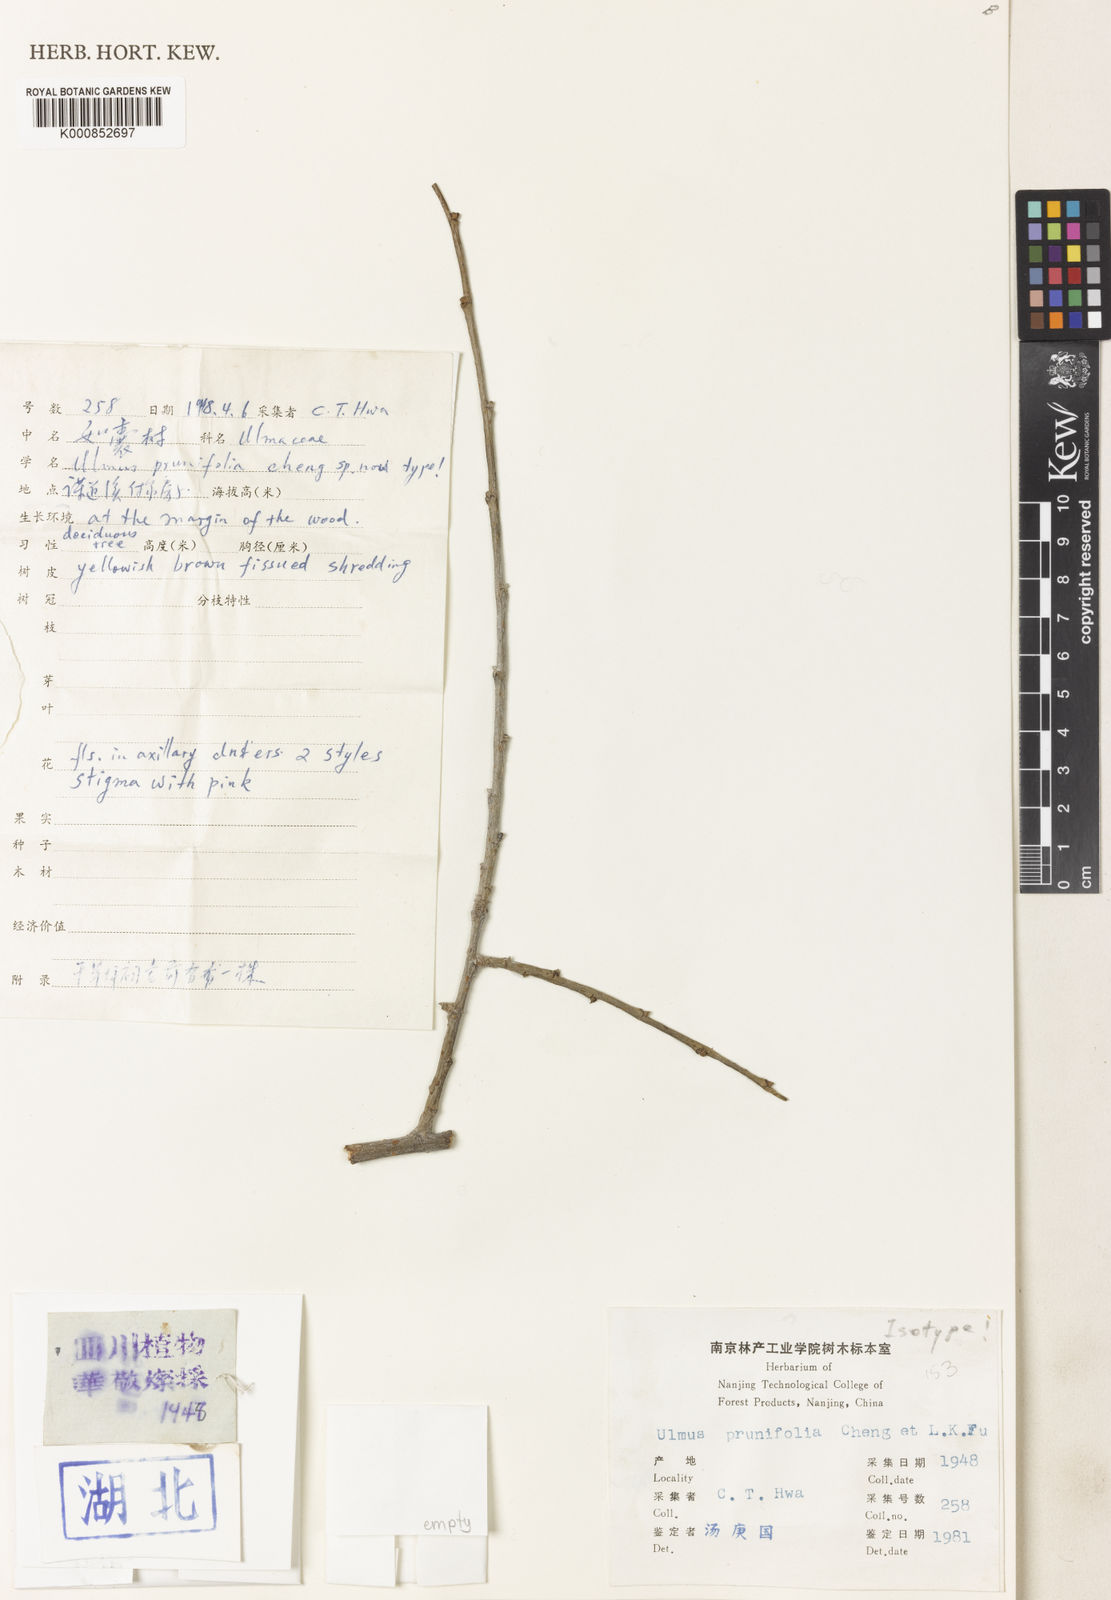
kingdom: Plantae
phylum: Tracheophyta
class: Magnoliopsida
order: Rosales
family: Ulmaceae
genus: Ulmus
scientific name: Ulmus prunifolia
